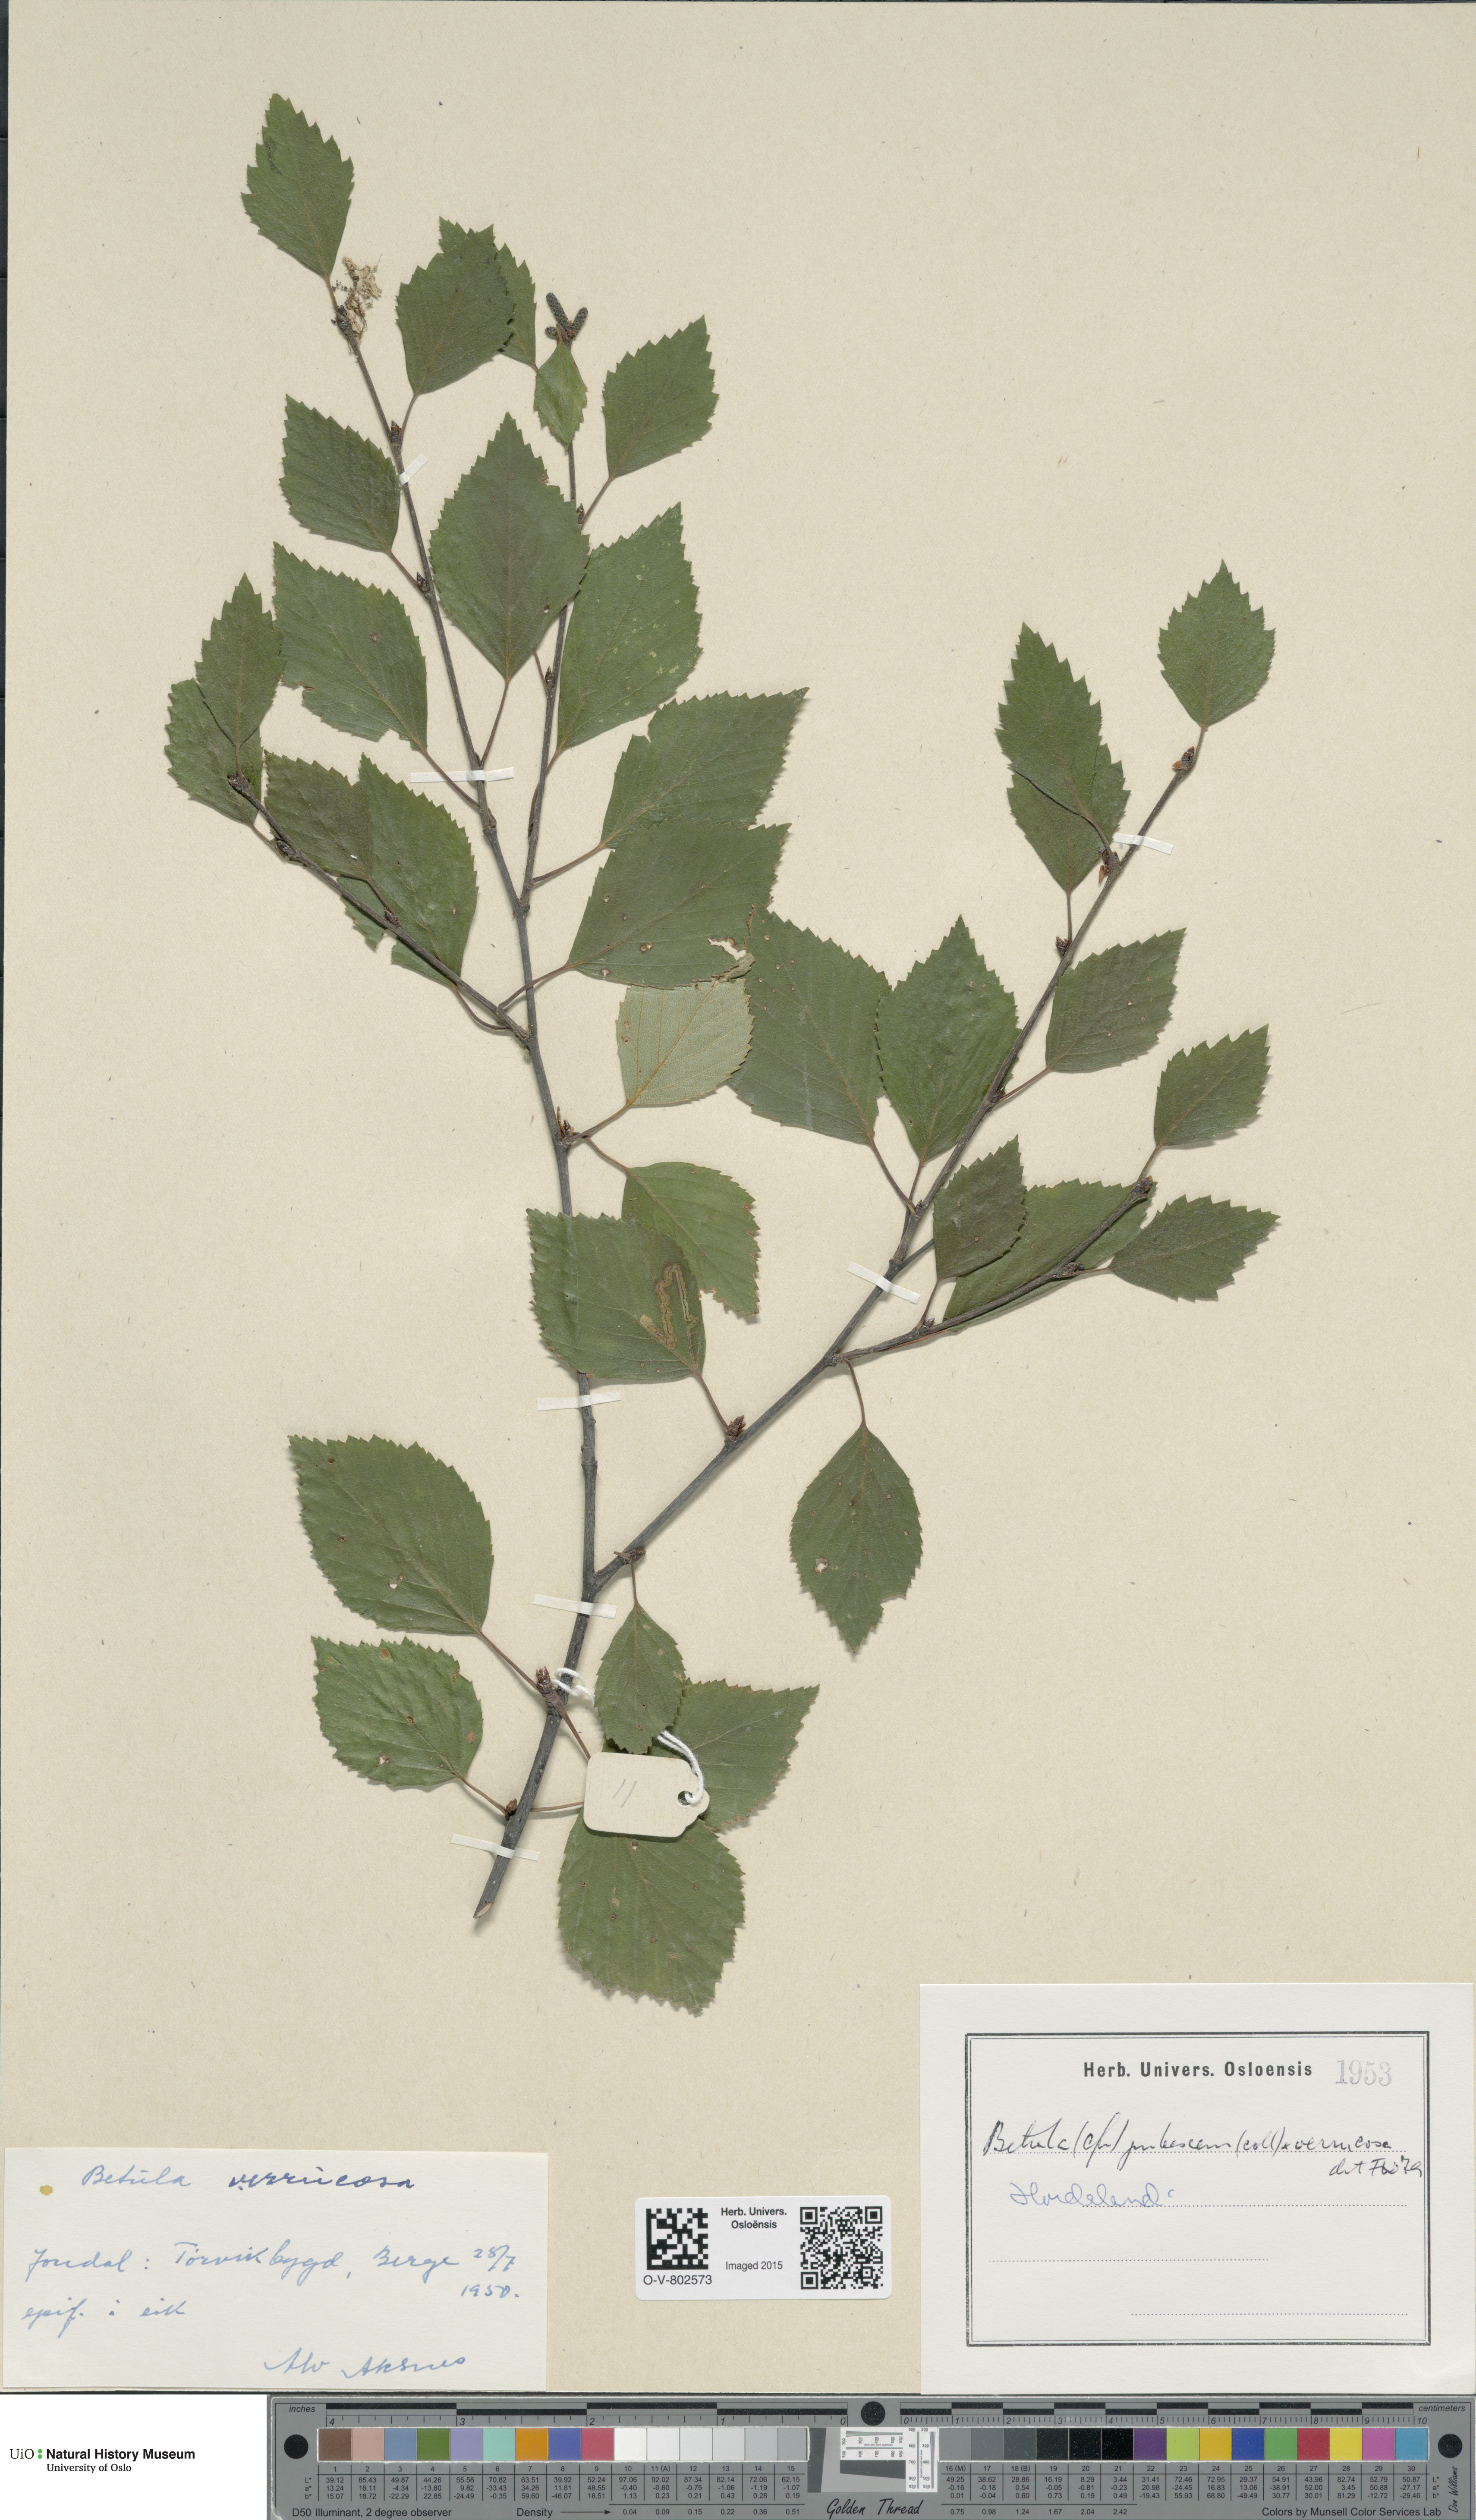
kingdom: Plantae
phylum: Tracheophyta
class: Magnoliopsida
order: Fagales
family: Betulaceae
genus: Betula
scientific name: Betula pubescens
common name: Downy birch
